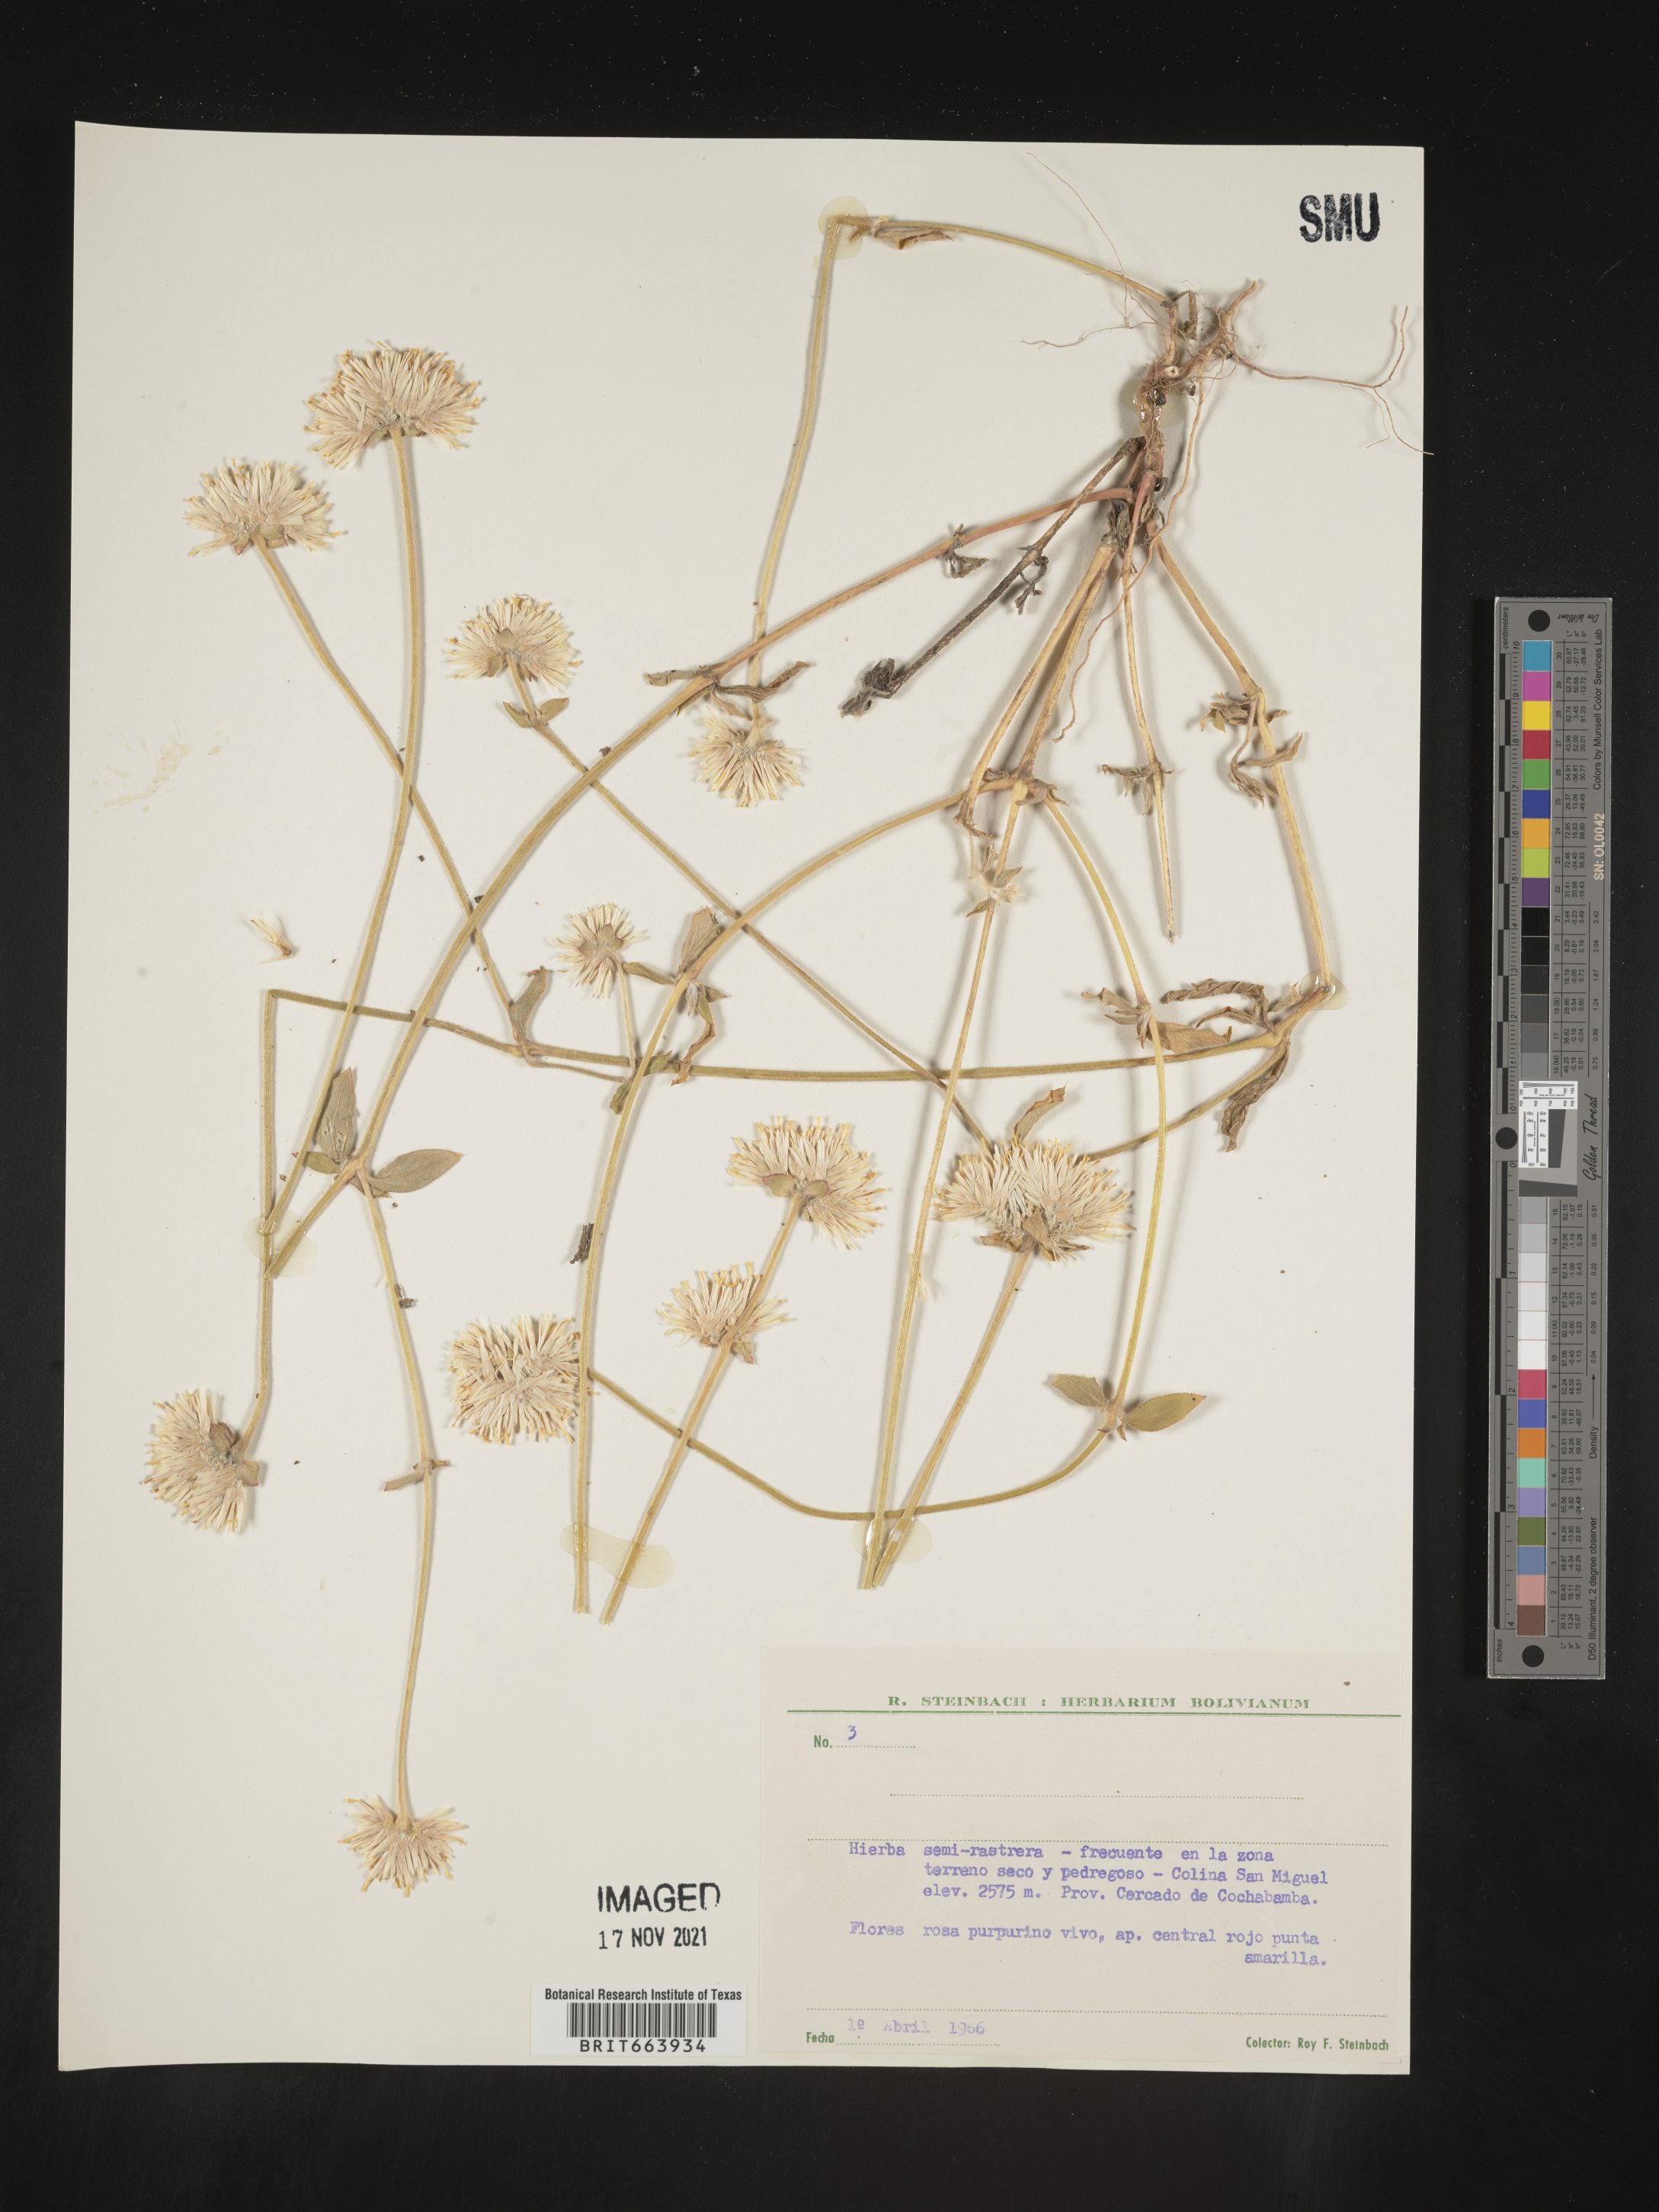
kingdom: Plantae
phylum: Tracheophyta
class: Magnoliopsida
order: Caryophyllales
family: Amaranthaceae
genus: Gomphrena
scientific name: Gomphrena
